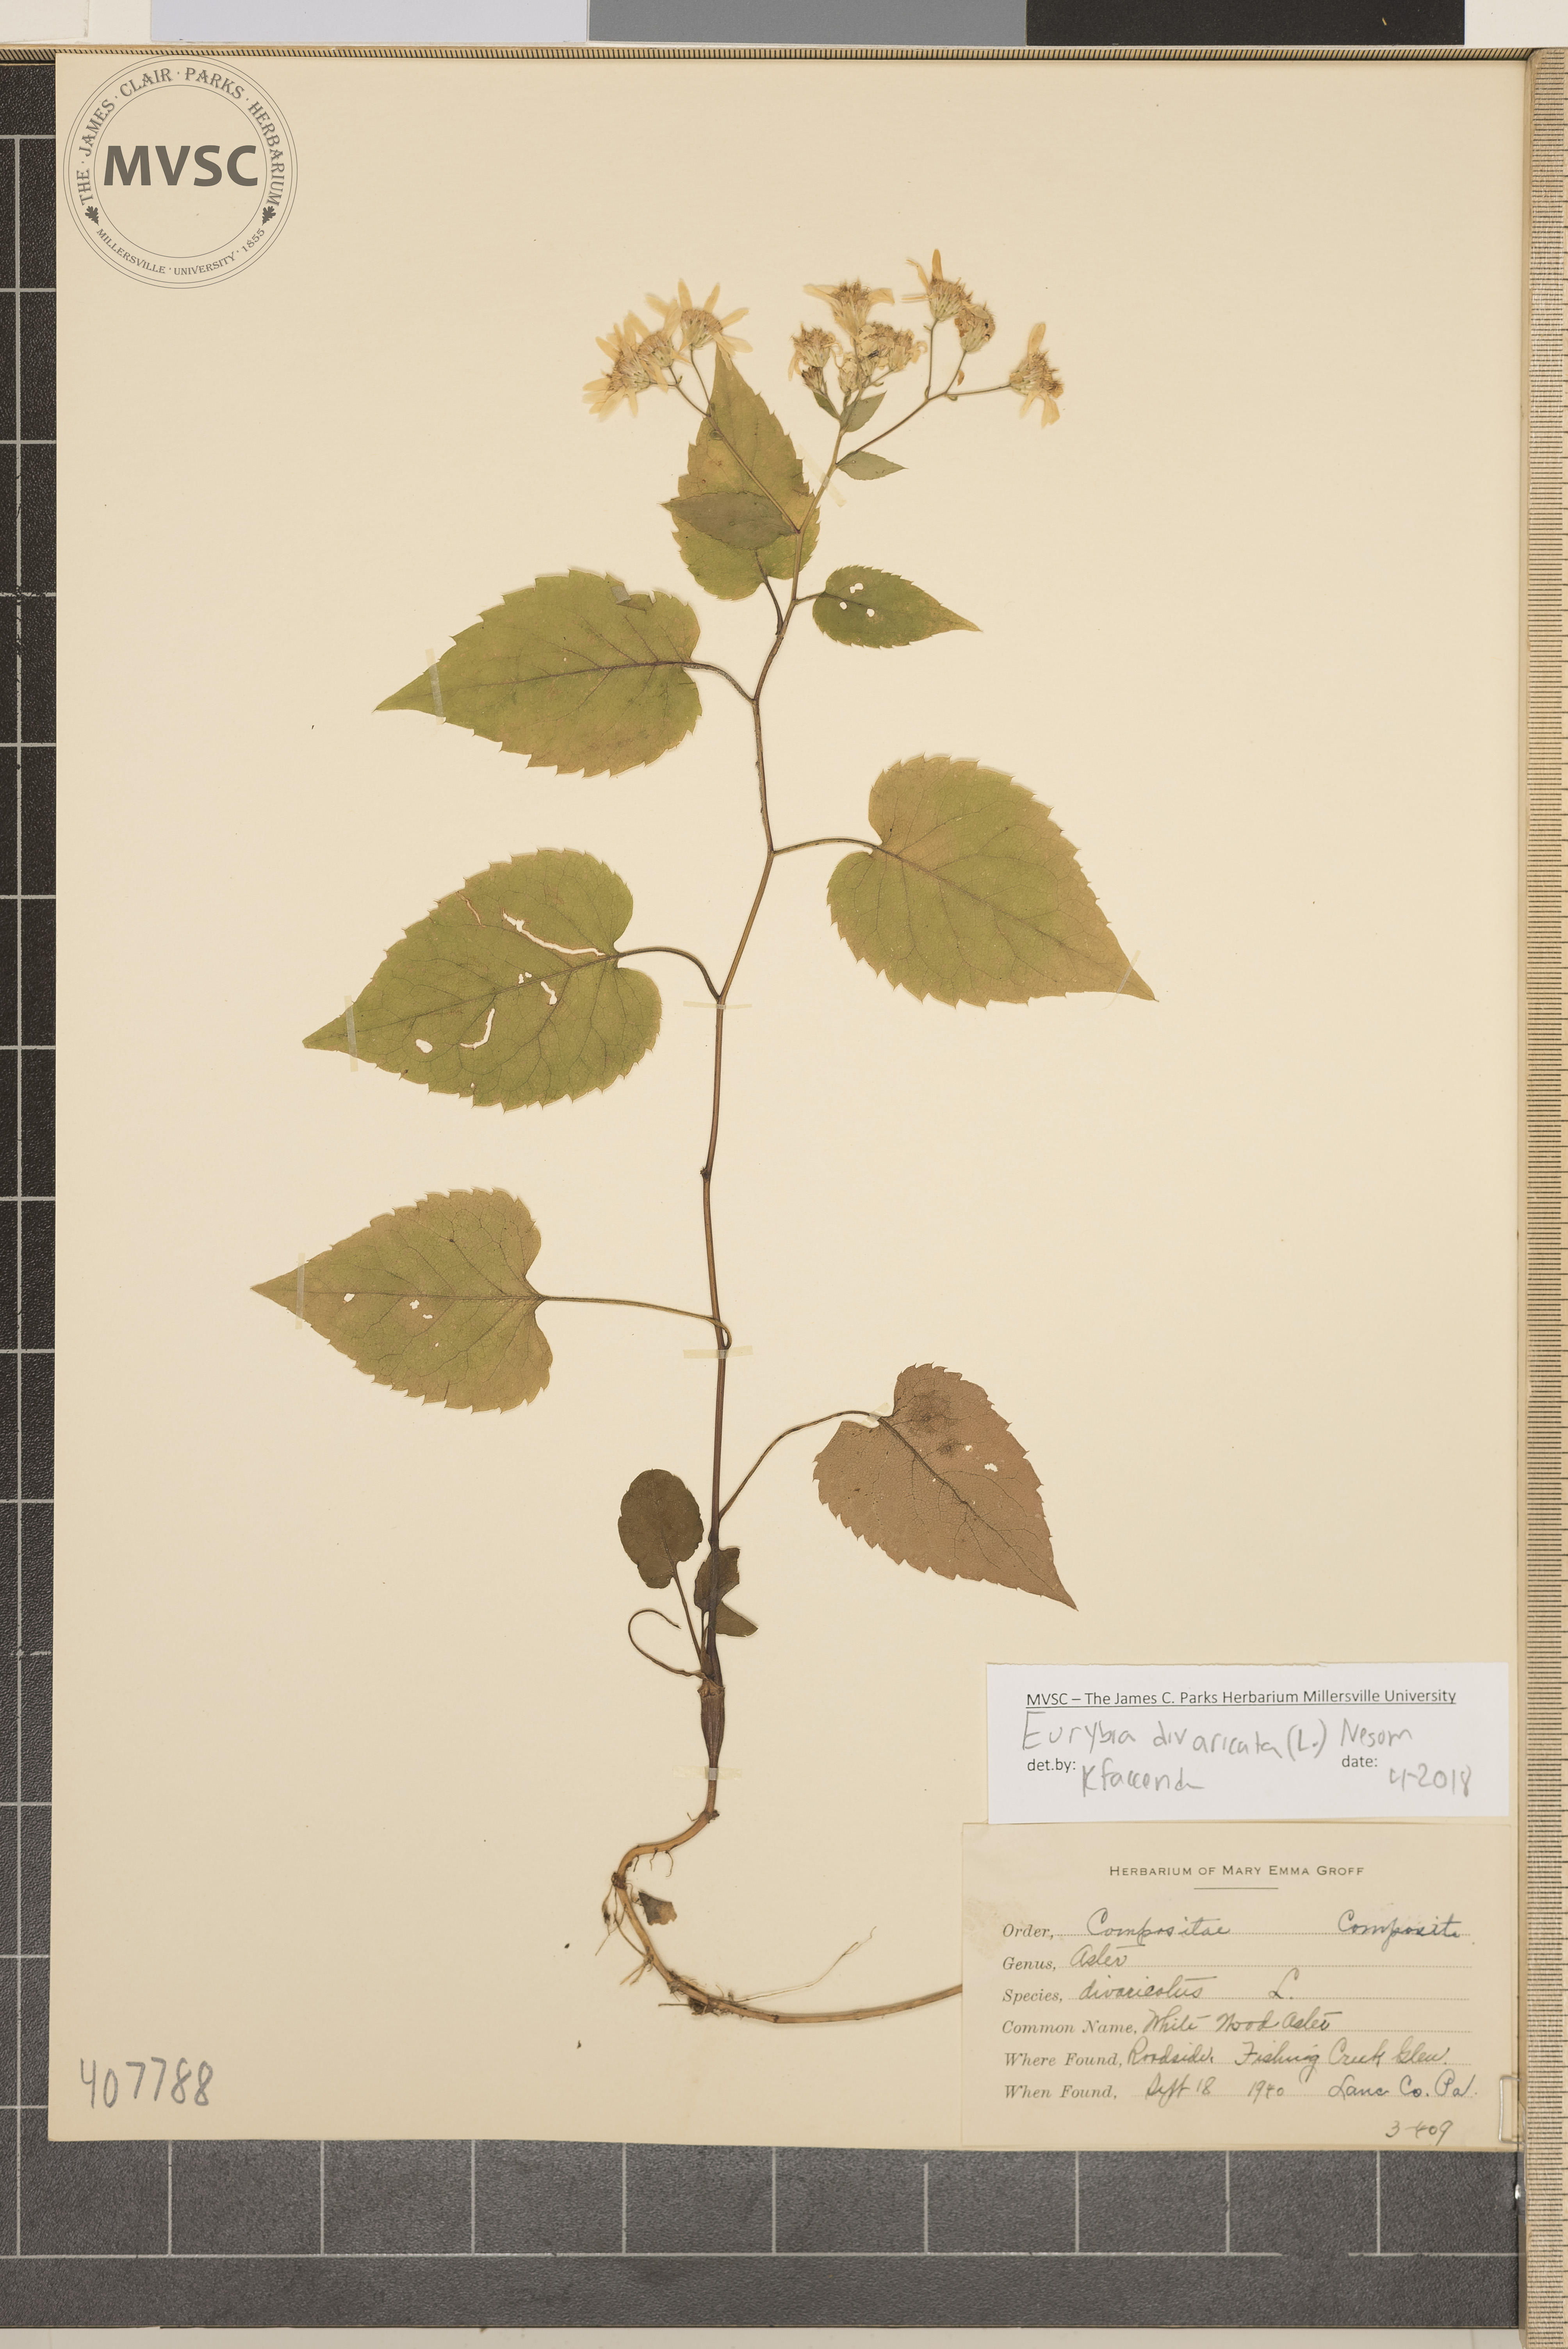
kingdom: Plantae
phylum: Tracheophyta
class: Magnoliopsida
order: Asterales
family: Asteraceae
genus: Eurybia
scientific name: Eurybia divaricata
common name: White Wood Aster
